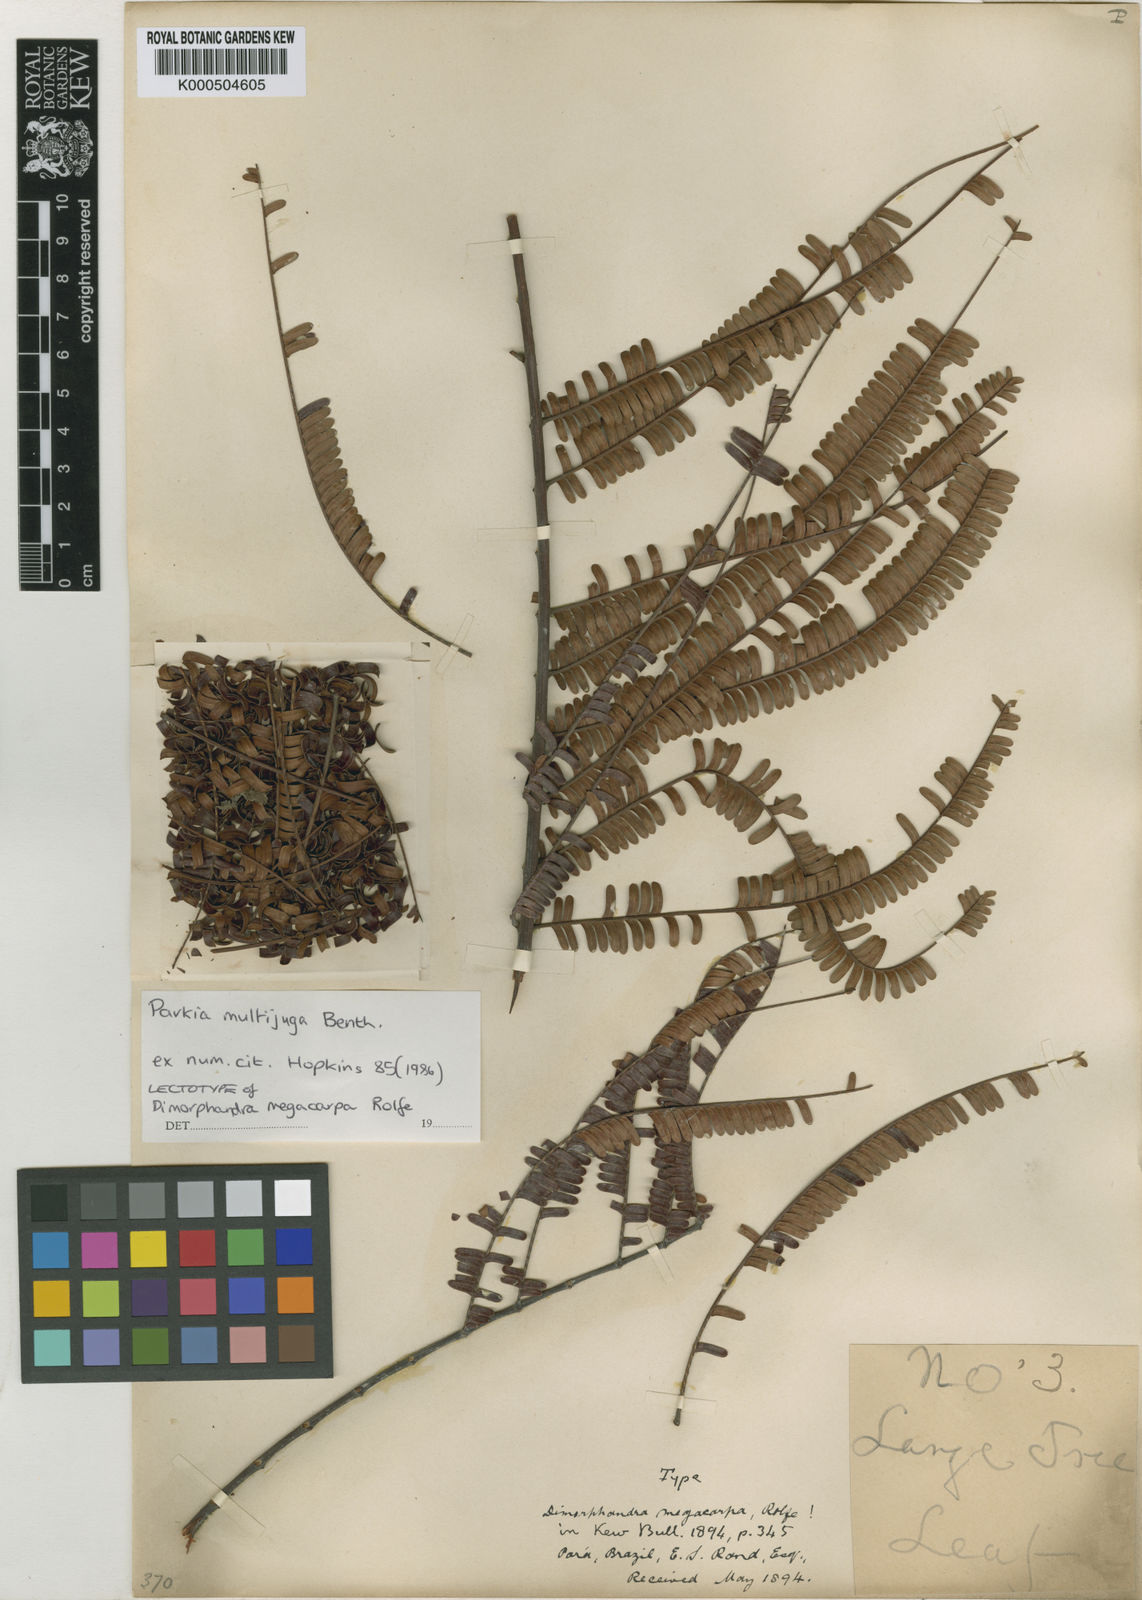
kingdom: Plantae
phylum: Tracheophyta
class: Magnoliopsida
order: Fabales
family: Fabaceae
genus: Parkia
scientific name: Parkia multijuga
